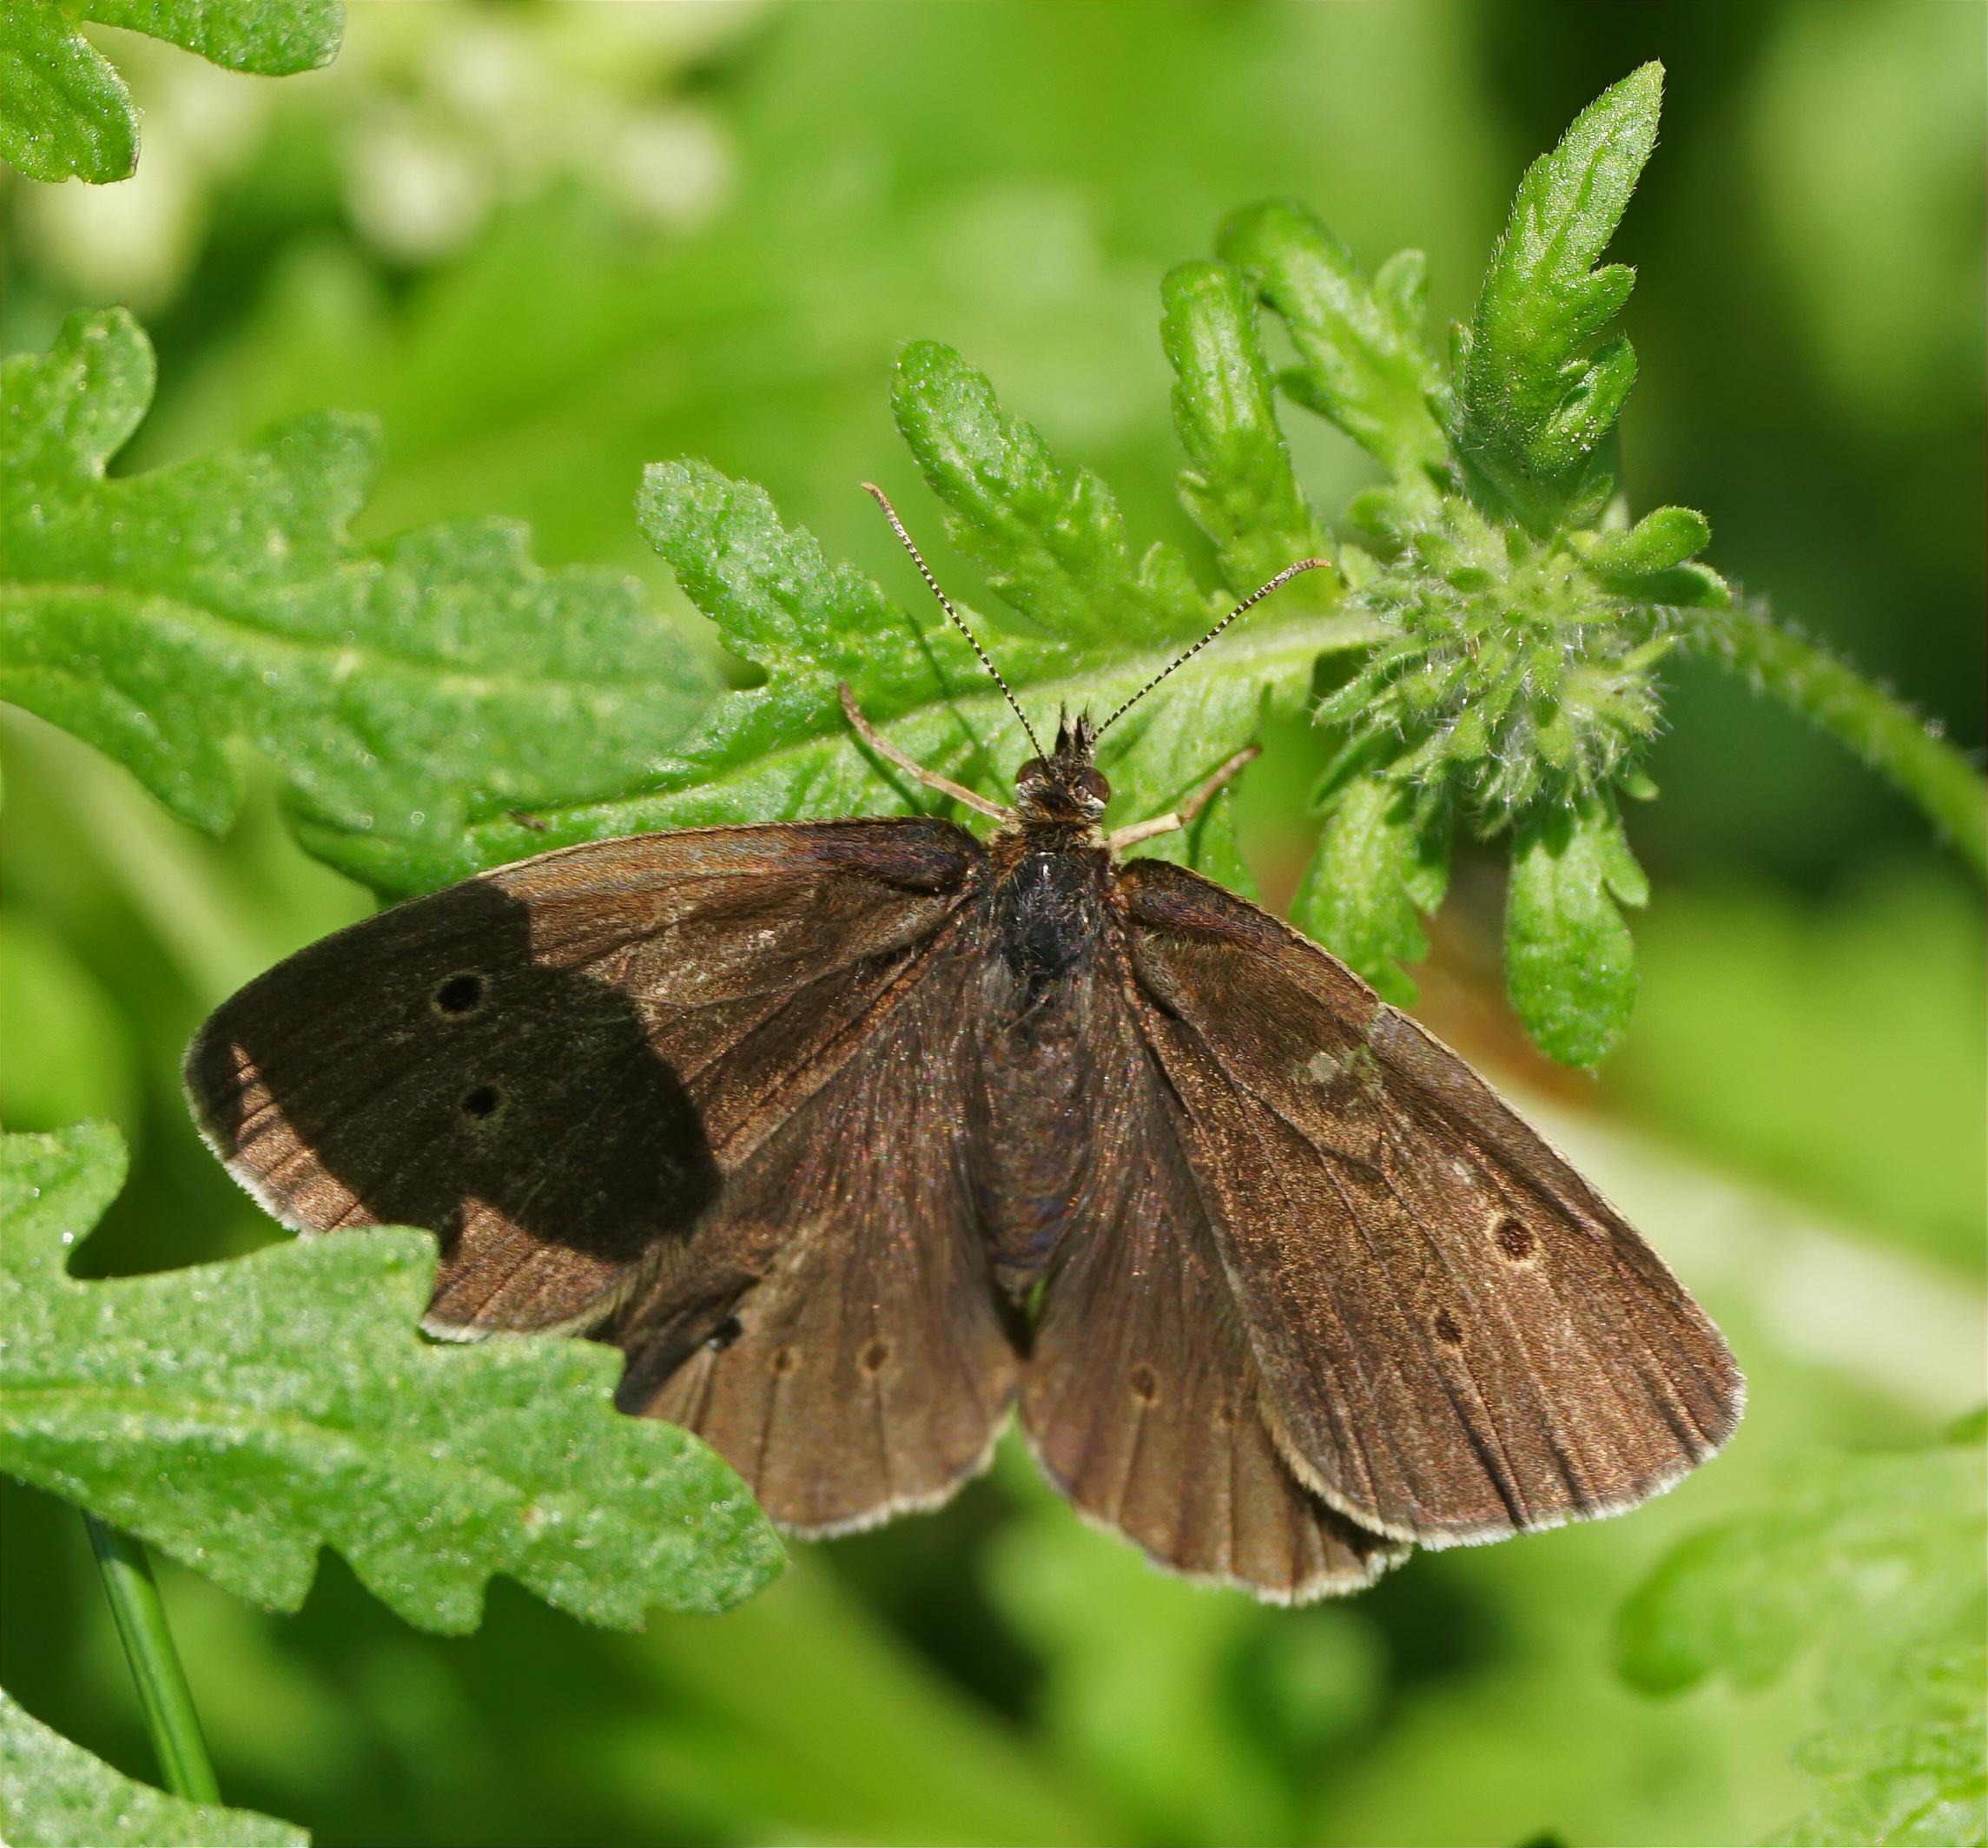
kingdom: Animalia
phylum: Arthropoda
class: Insecta
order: Lepidoptera
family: Nymphalidae
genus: Aphantopus
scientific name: Aphantopus hyperantus
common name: Engrandøje
